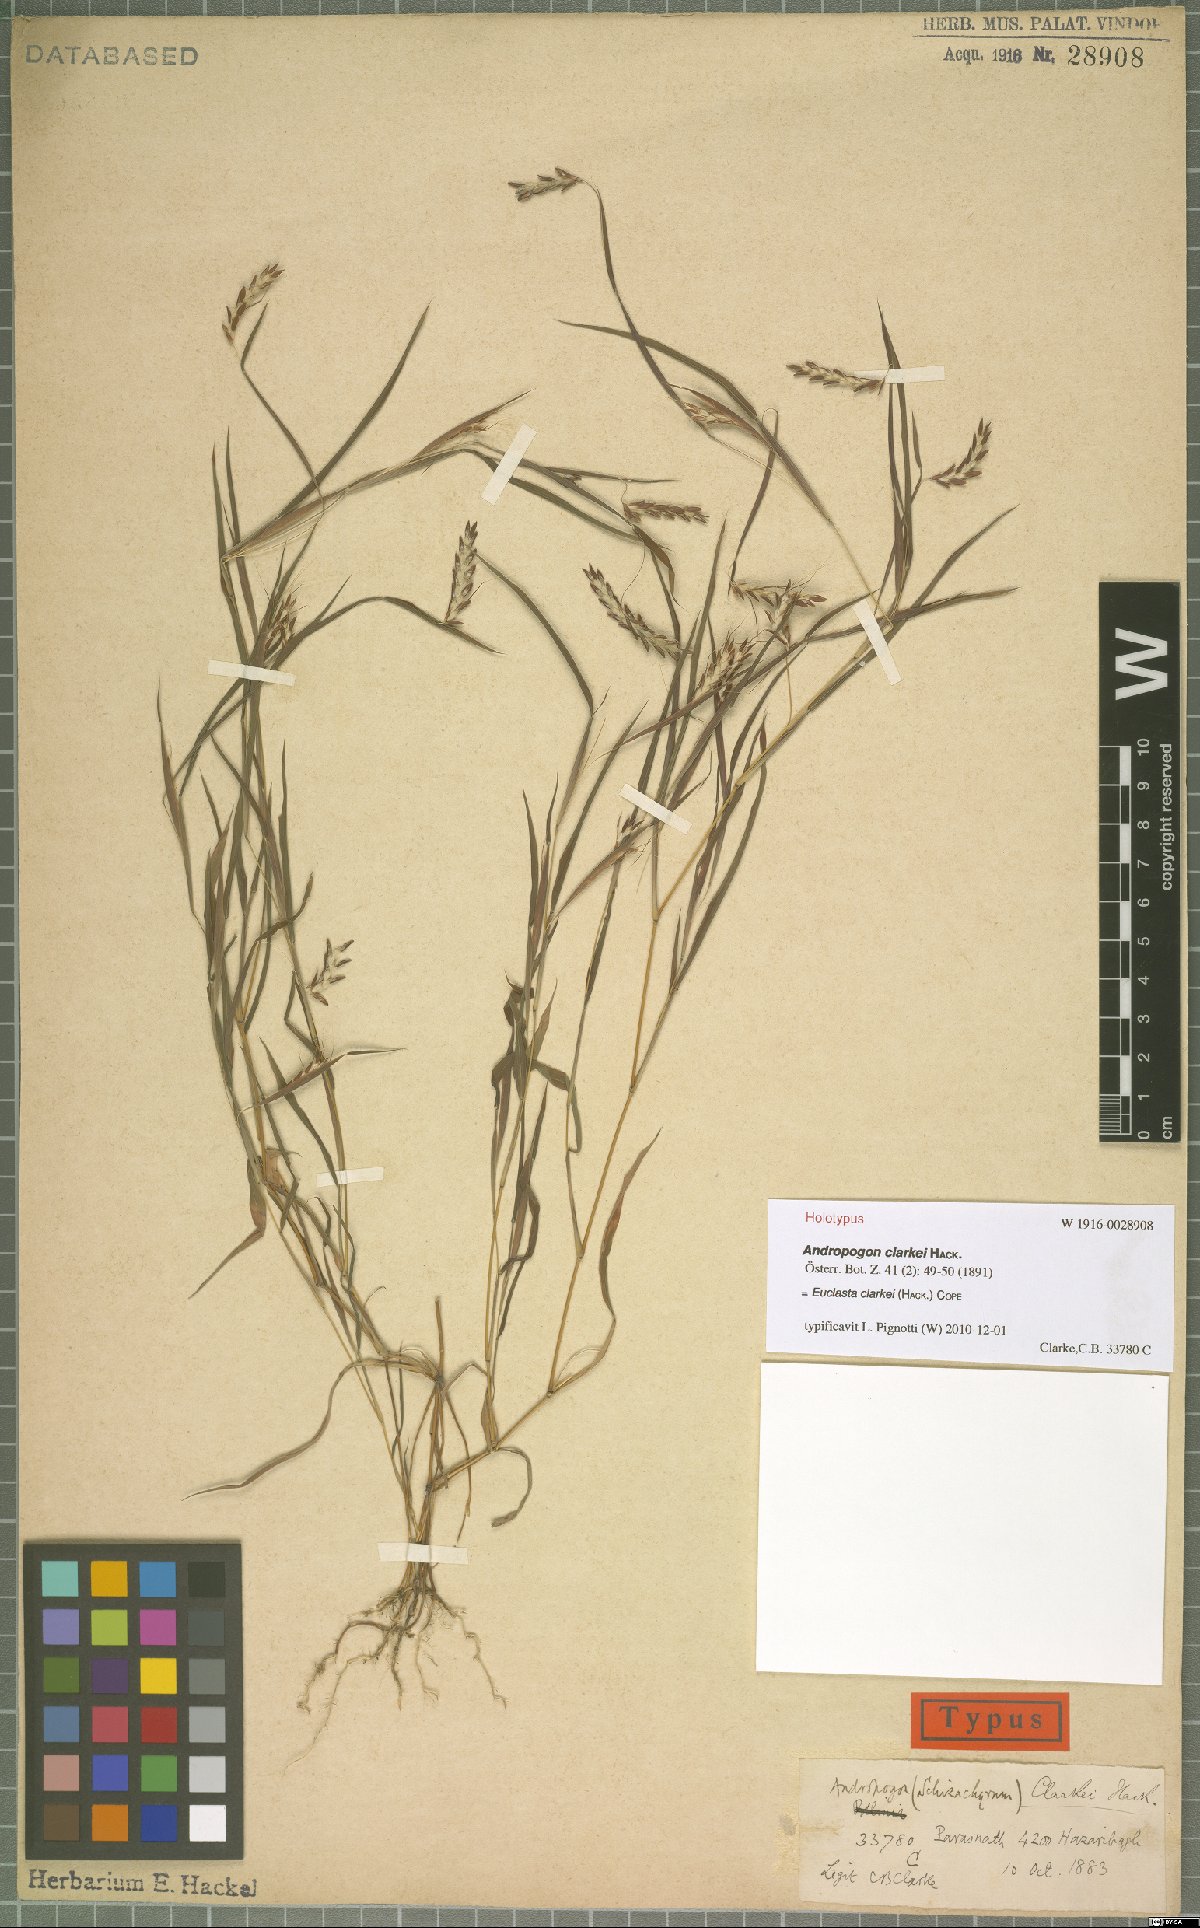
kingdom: Plantae
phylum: Tracheophyta
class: Liliopsida
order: Poales
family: Poaceae
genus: Euclasta
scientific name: Euclasta clarkei
